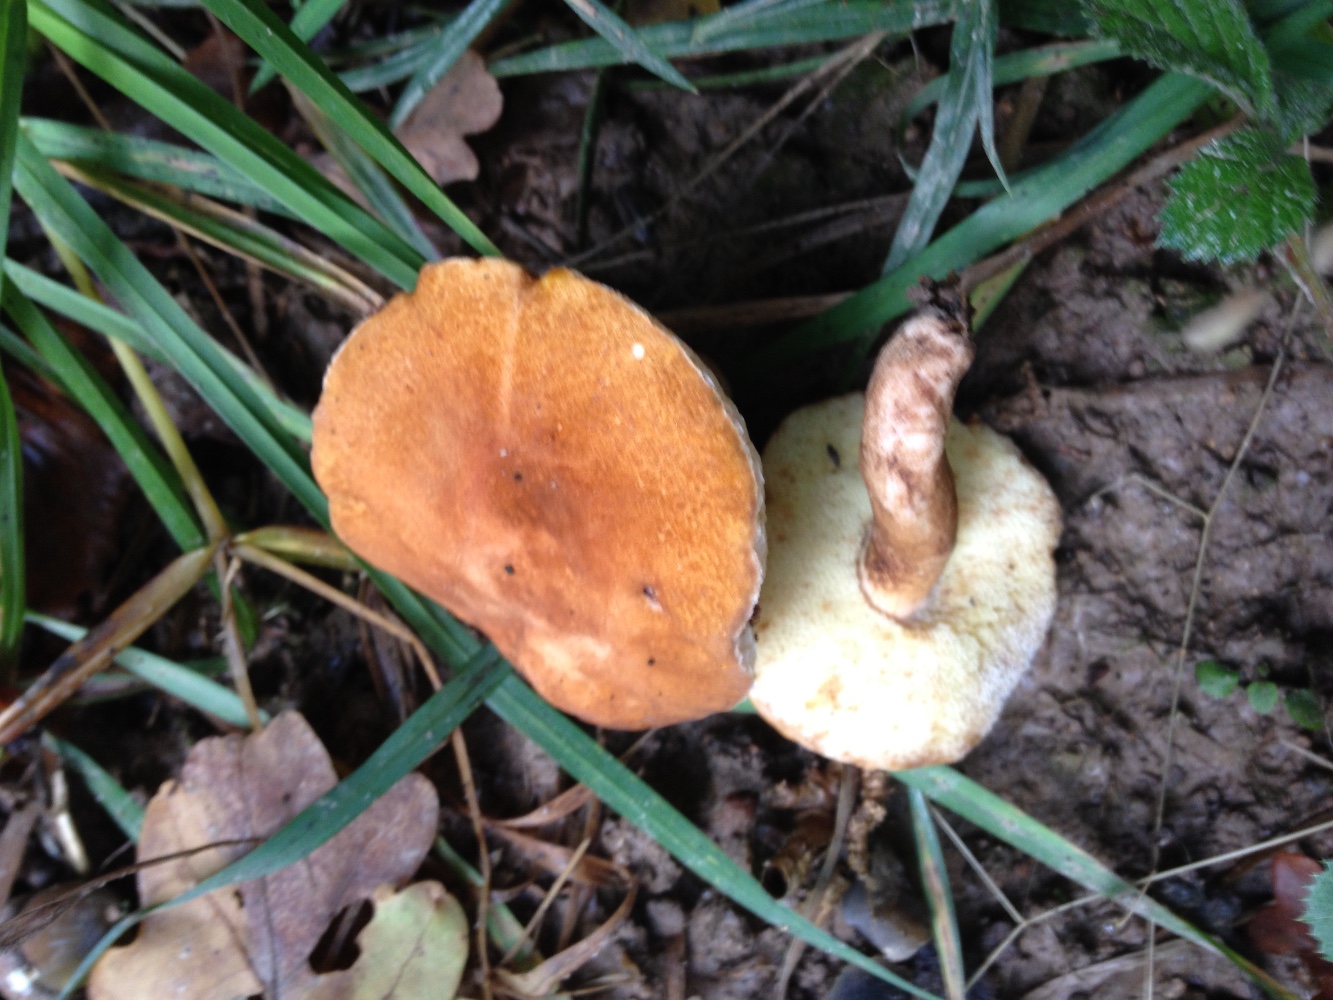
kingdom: Fungi
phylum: Basidiomycota
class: Agaricomycetes
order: Boletales
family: Gyroporaceae
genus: Gyroporus
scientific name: Gyroporus castaneus
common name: kastanie-kammerrørhat
